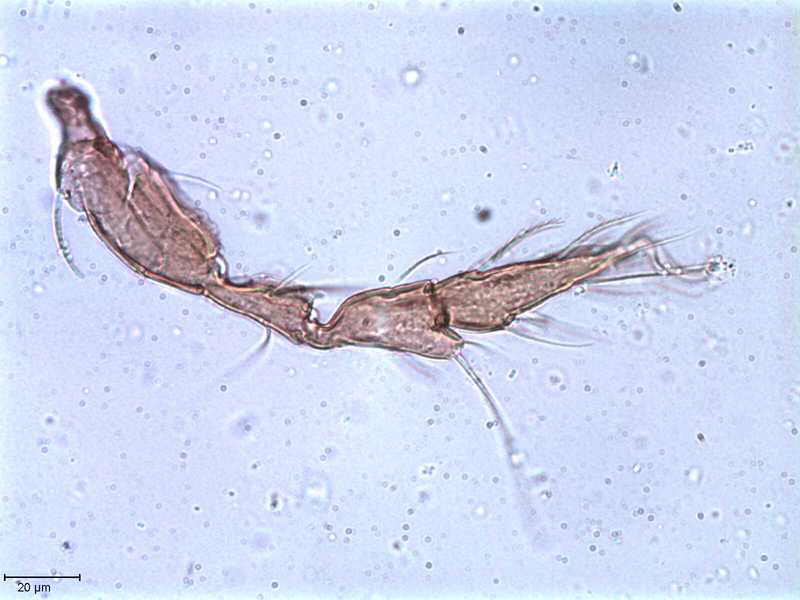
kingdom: Animalia
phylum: Arthropoda
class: Arachnida
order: Sarcoptiformes
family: Tegoribatidae
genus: Plakoribates
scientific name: Plakoribates multicuspidatus
